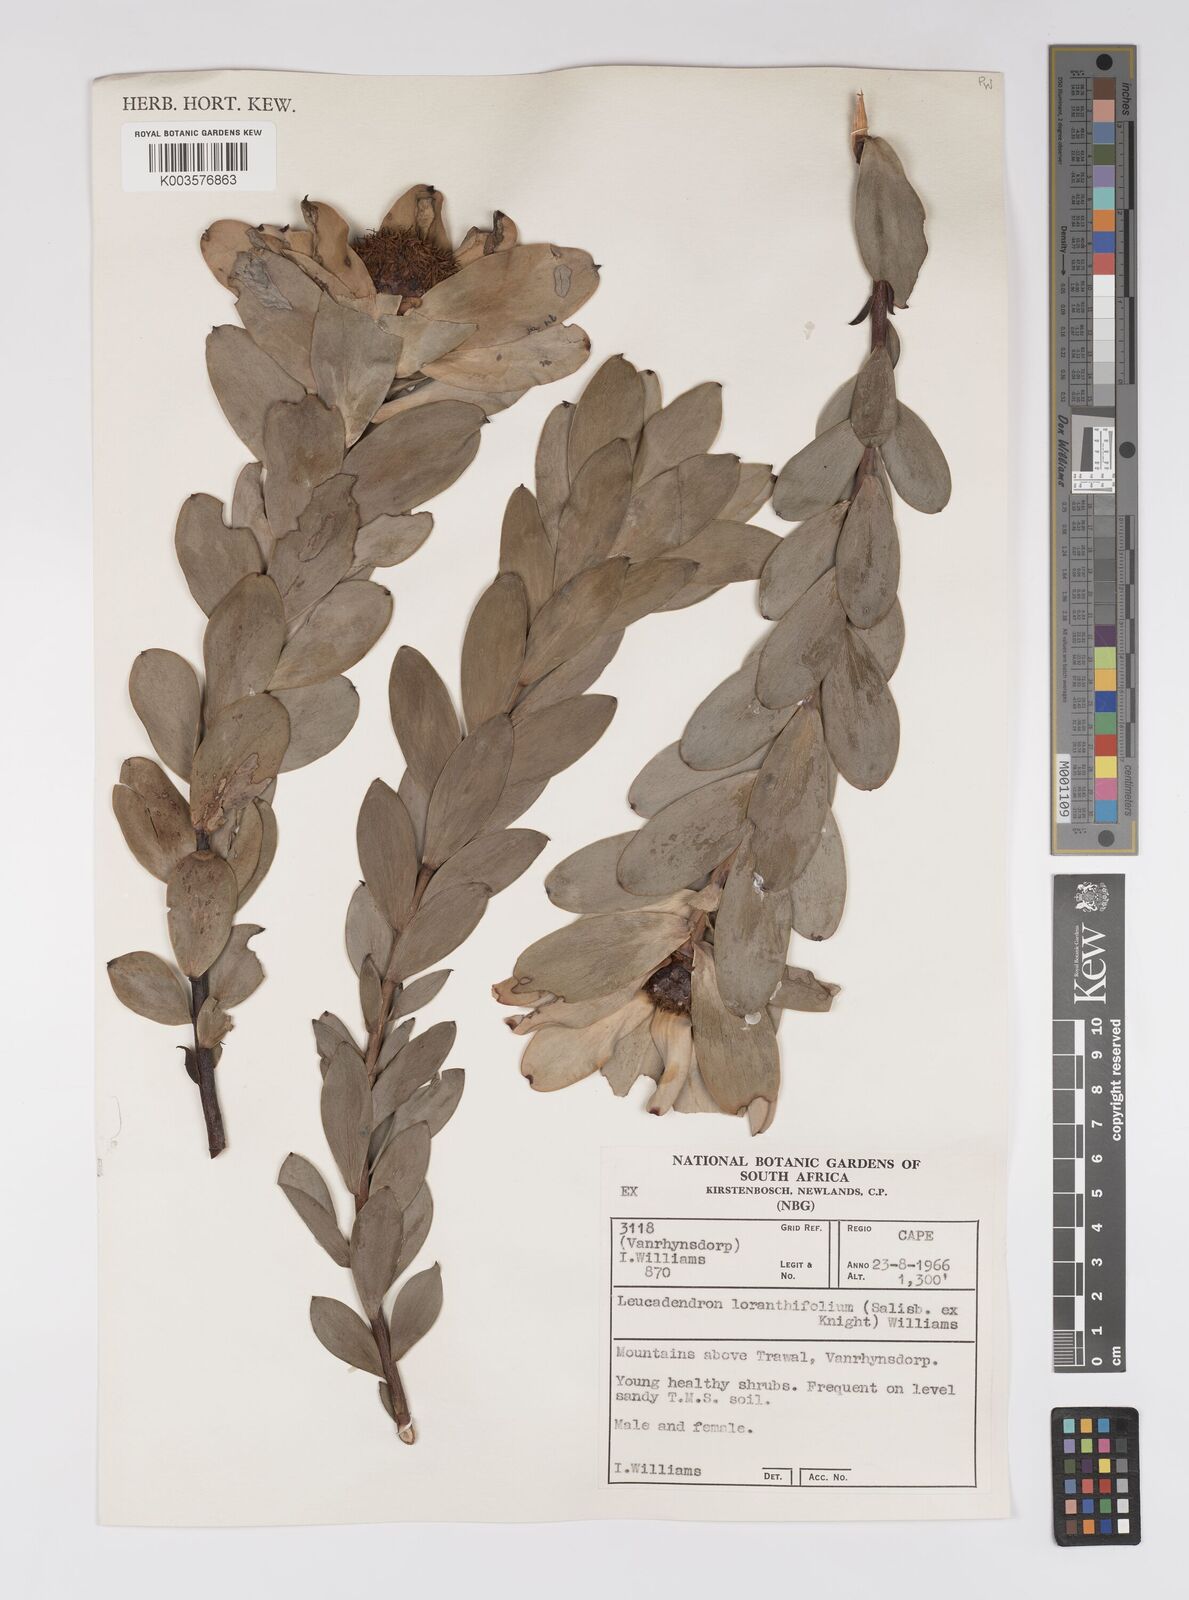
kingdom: Plantae
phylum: Tracheophyta
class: Magnoliopsida
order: Proteales
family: Proteaceae
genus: Leucadendron
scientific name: Leucadendron loranthifolium
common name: Green-flower sunbush
